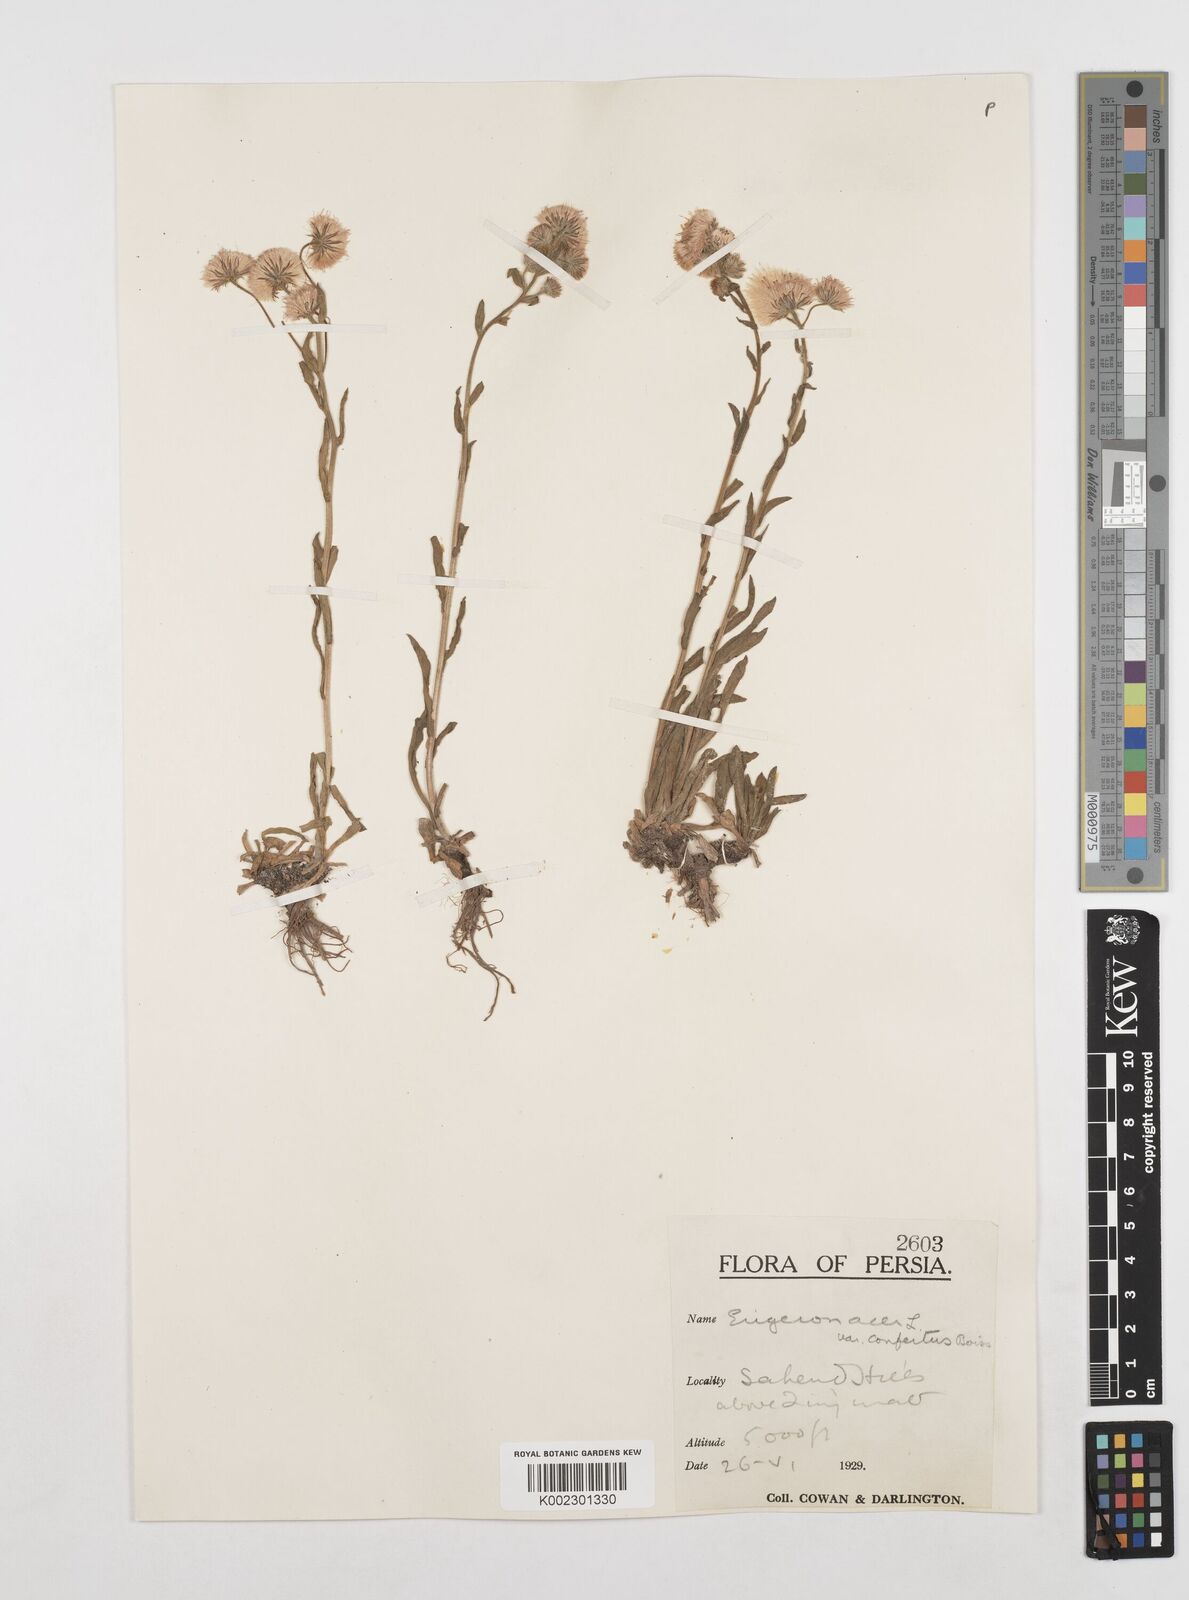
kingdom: Plantae
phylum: Tracheophyta
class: Magnoliopsida
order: Asterales
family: Asteraceae
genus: Erigeron
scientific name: Erigeron acris
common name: Blue fleabane
